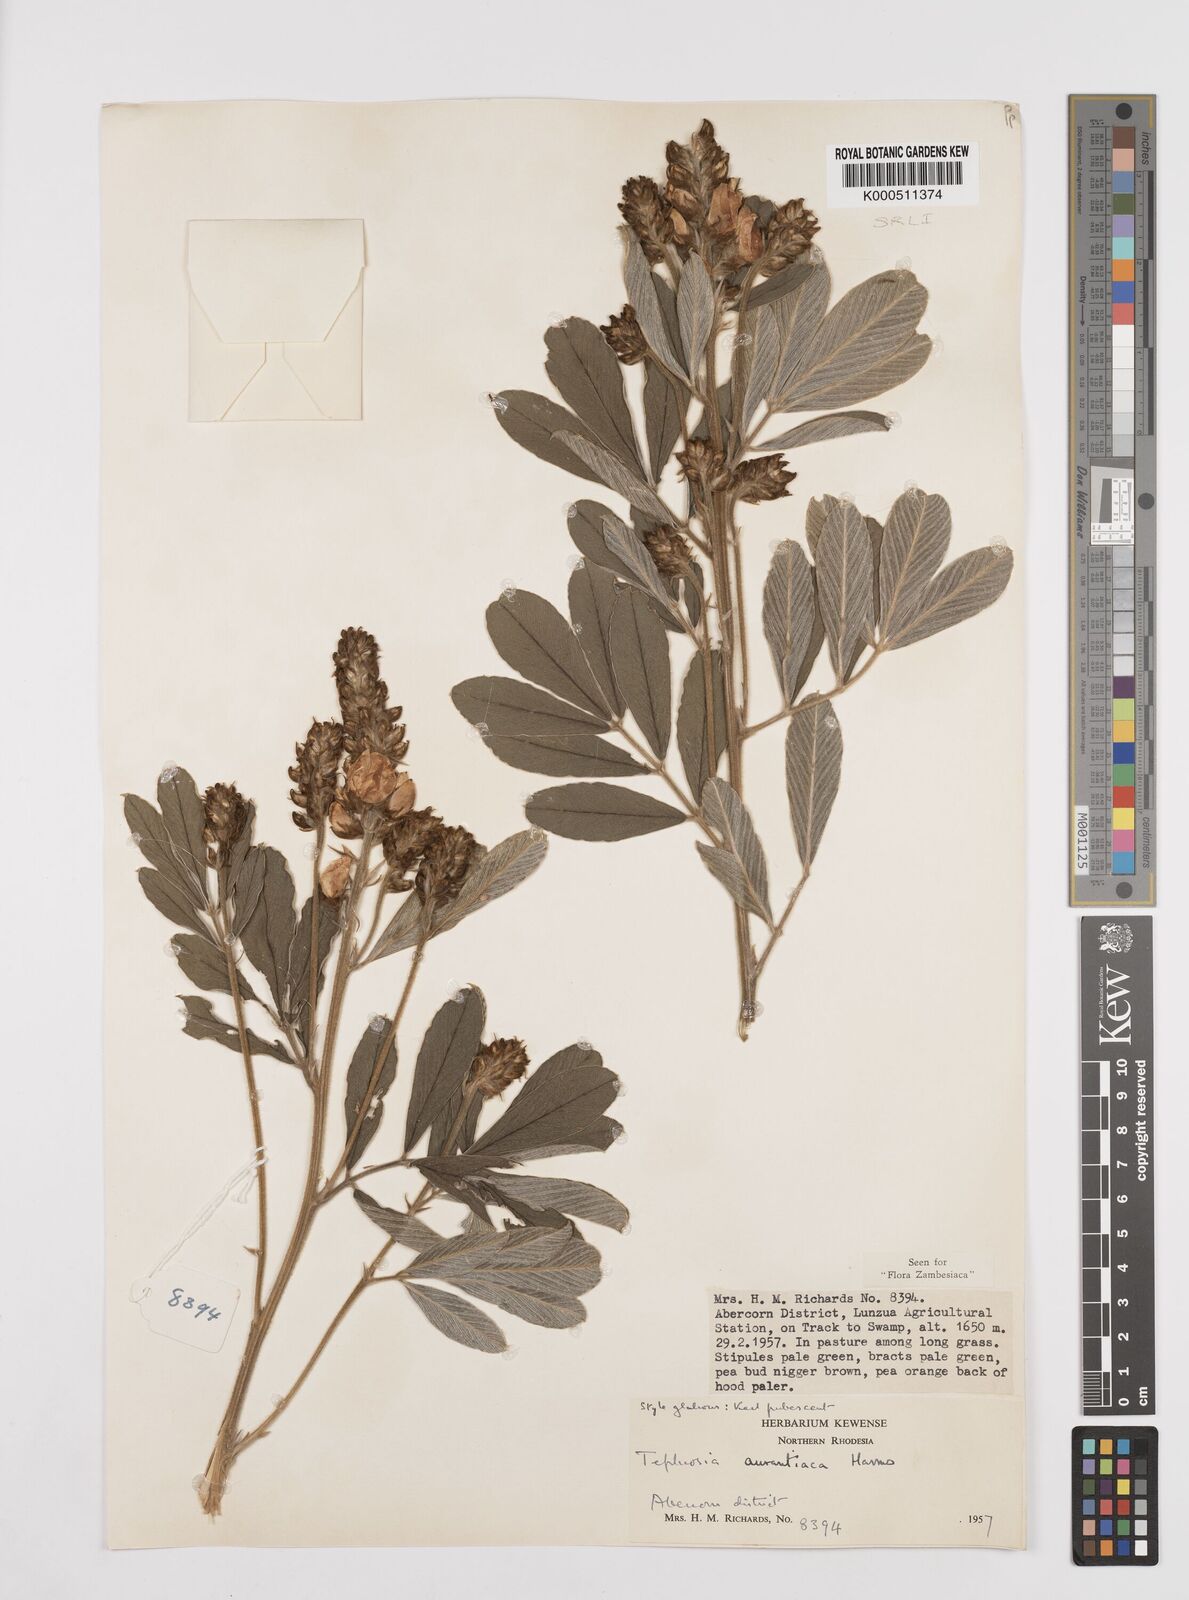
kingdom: Plantae
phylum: Tracheophyta
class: Magnoliopsida
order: Fabales
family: Fabaceae
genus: Tephrosia
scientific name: Tephrosia aurantiaca
